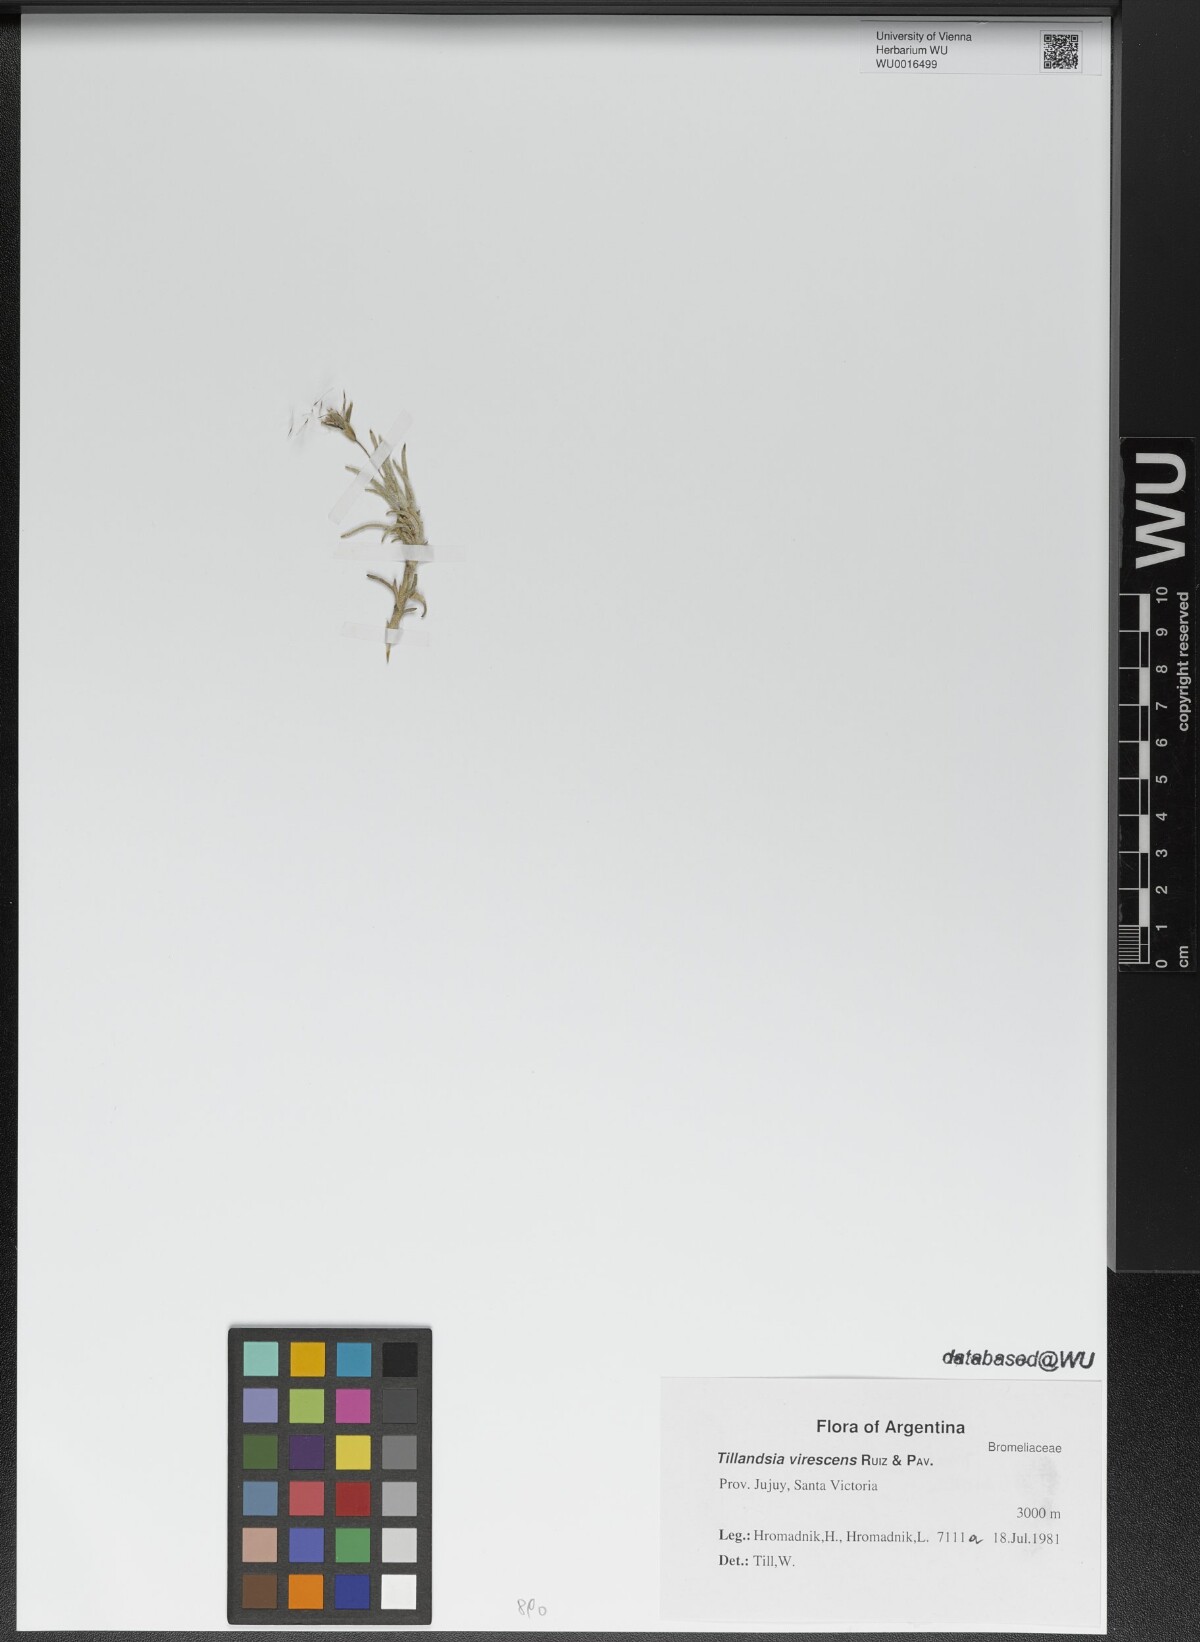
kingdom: Plantae
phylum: Tracheophyta
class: Liliopsida
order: Poales
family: Bromeliaceae
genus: Tillandsia
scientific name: Tillandsia virescens
